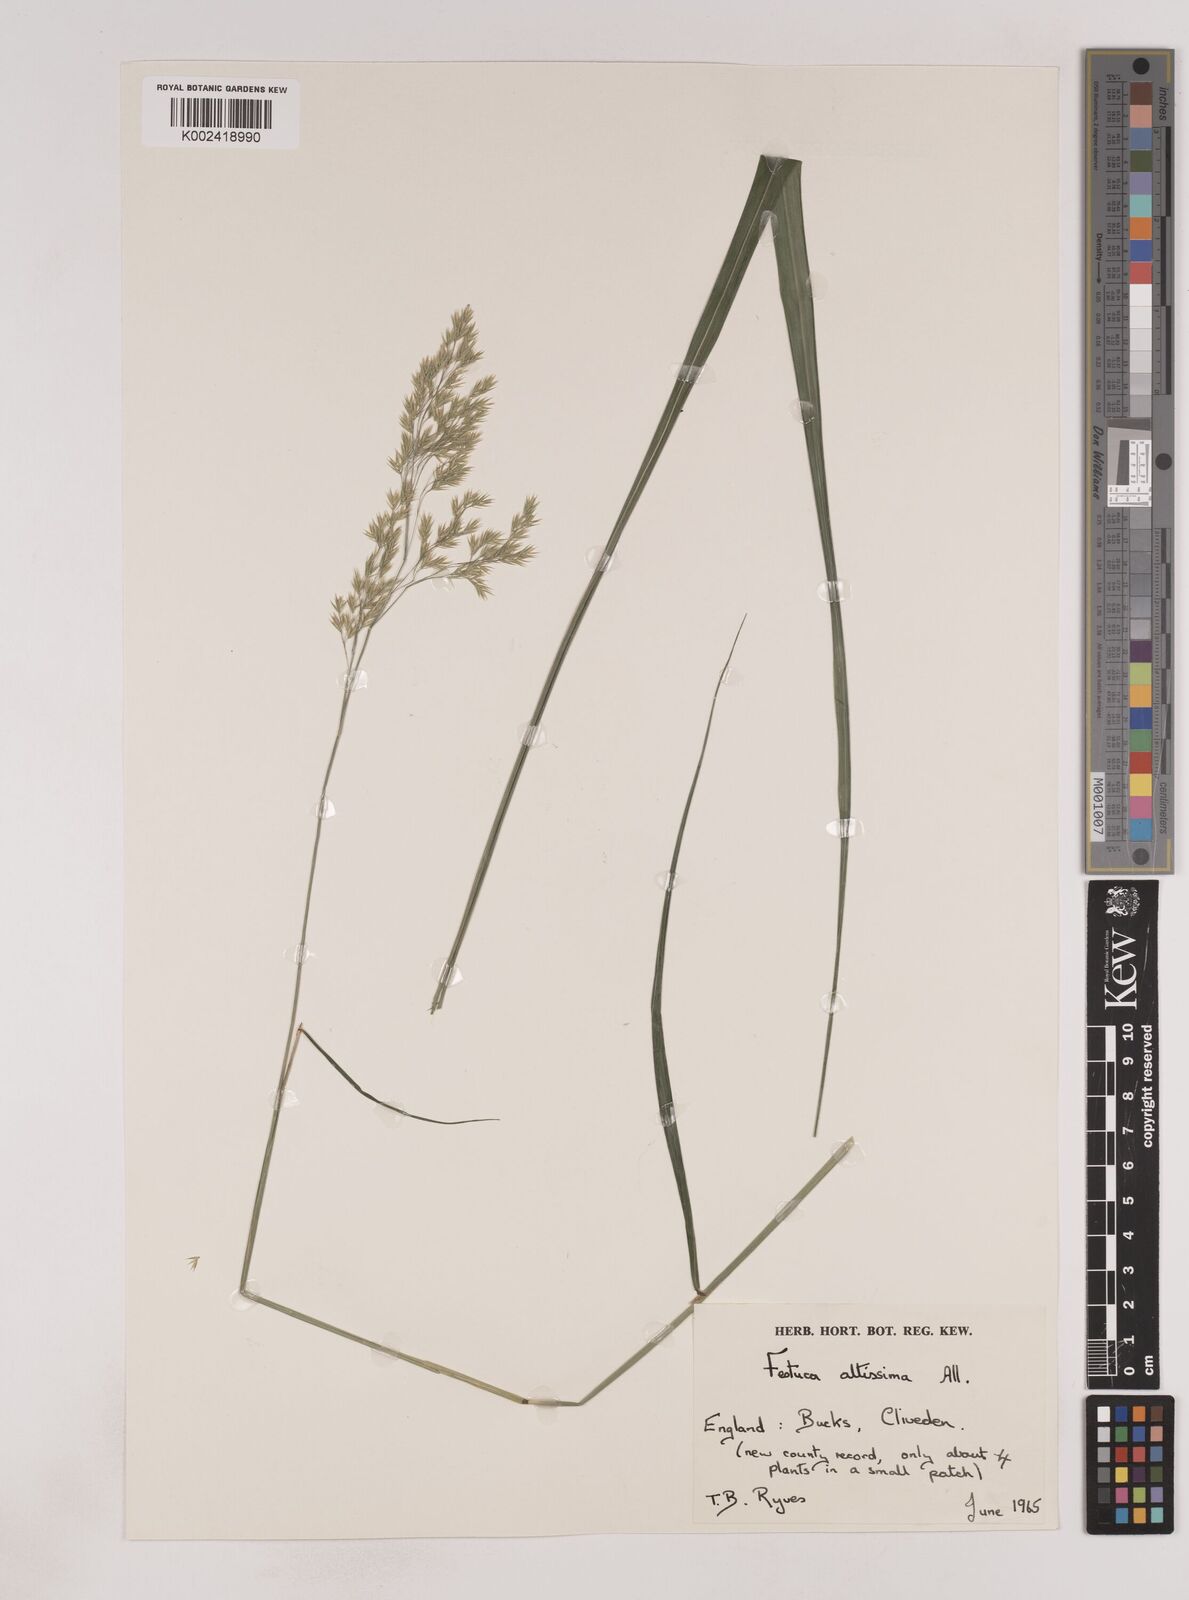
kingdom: Plantae
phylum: Tracheophyta
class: Liliopsida
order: Poales
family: Poaceae
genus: Festuca
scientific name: Festuca drymeja
